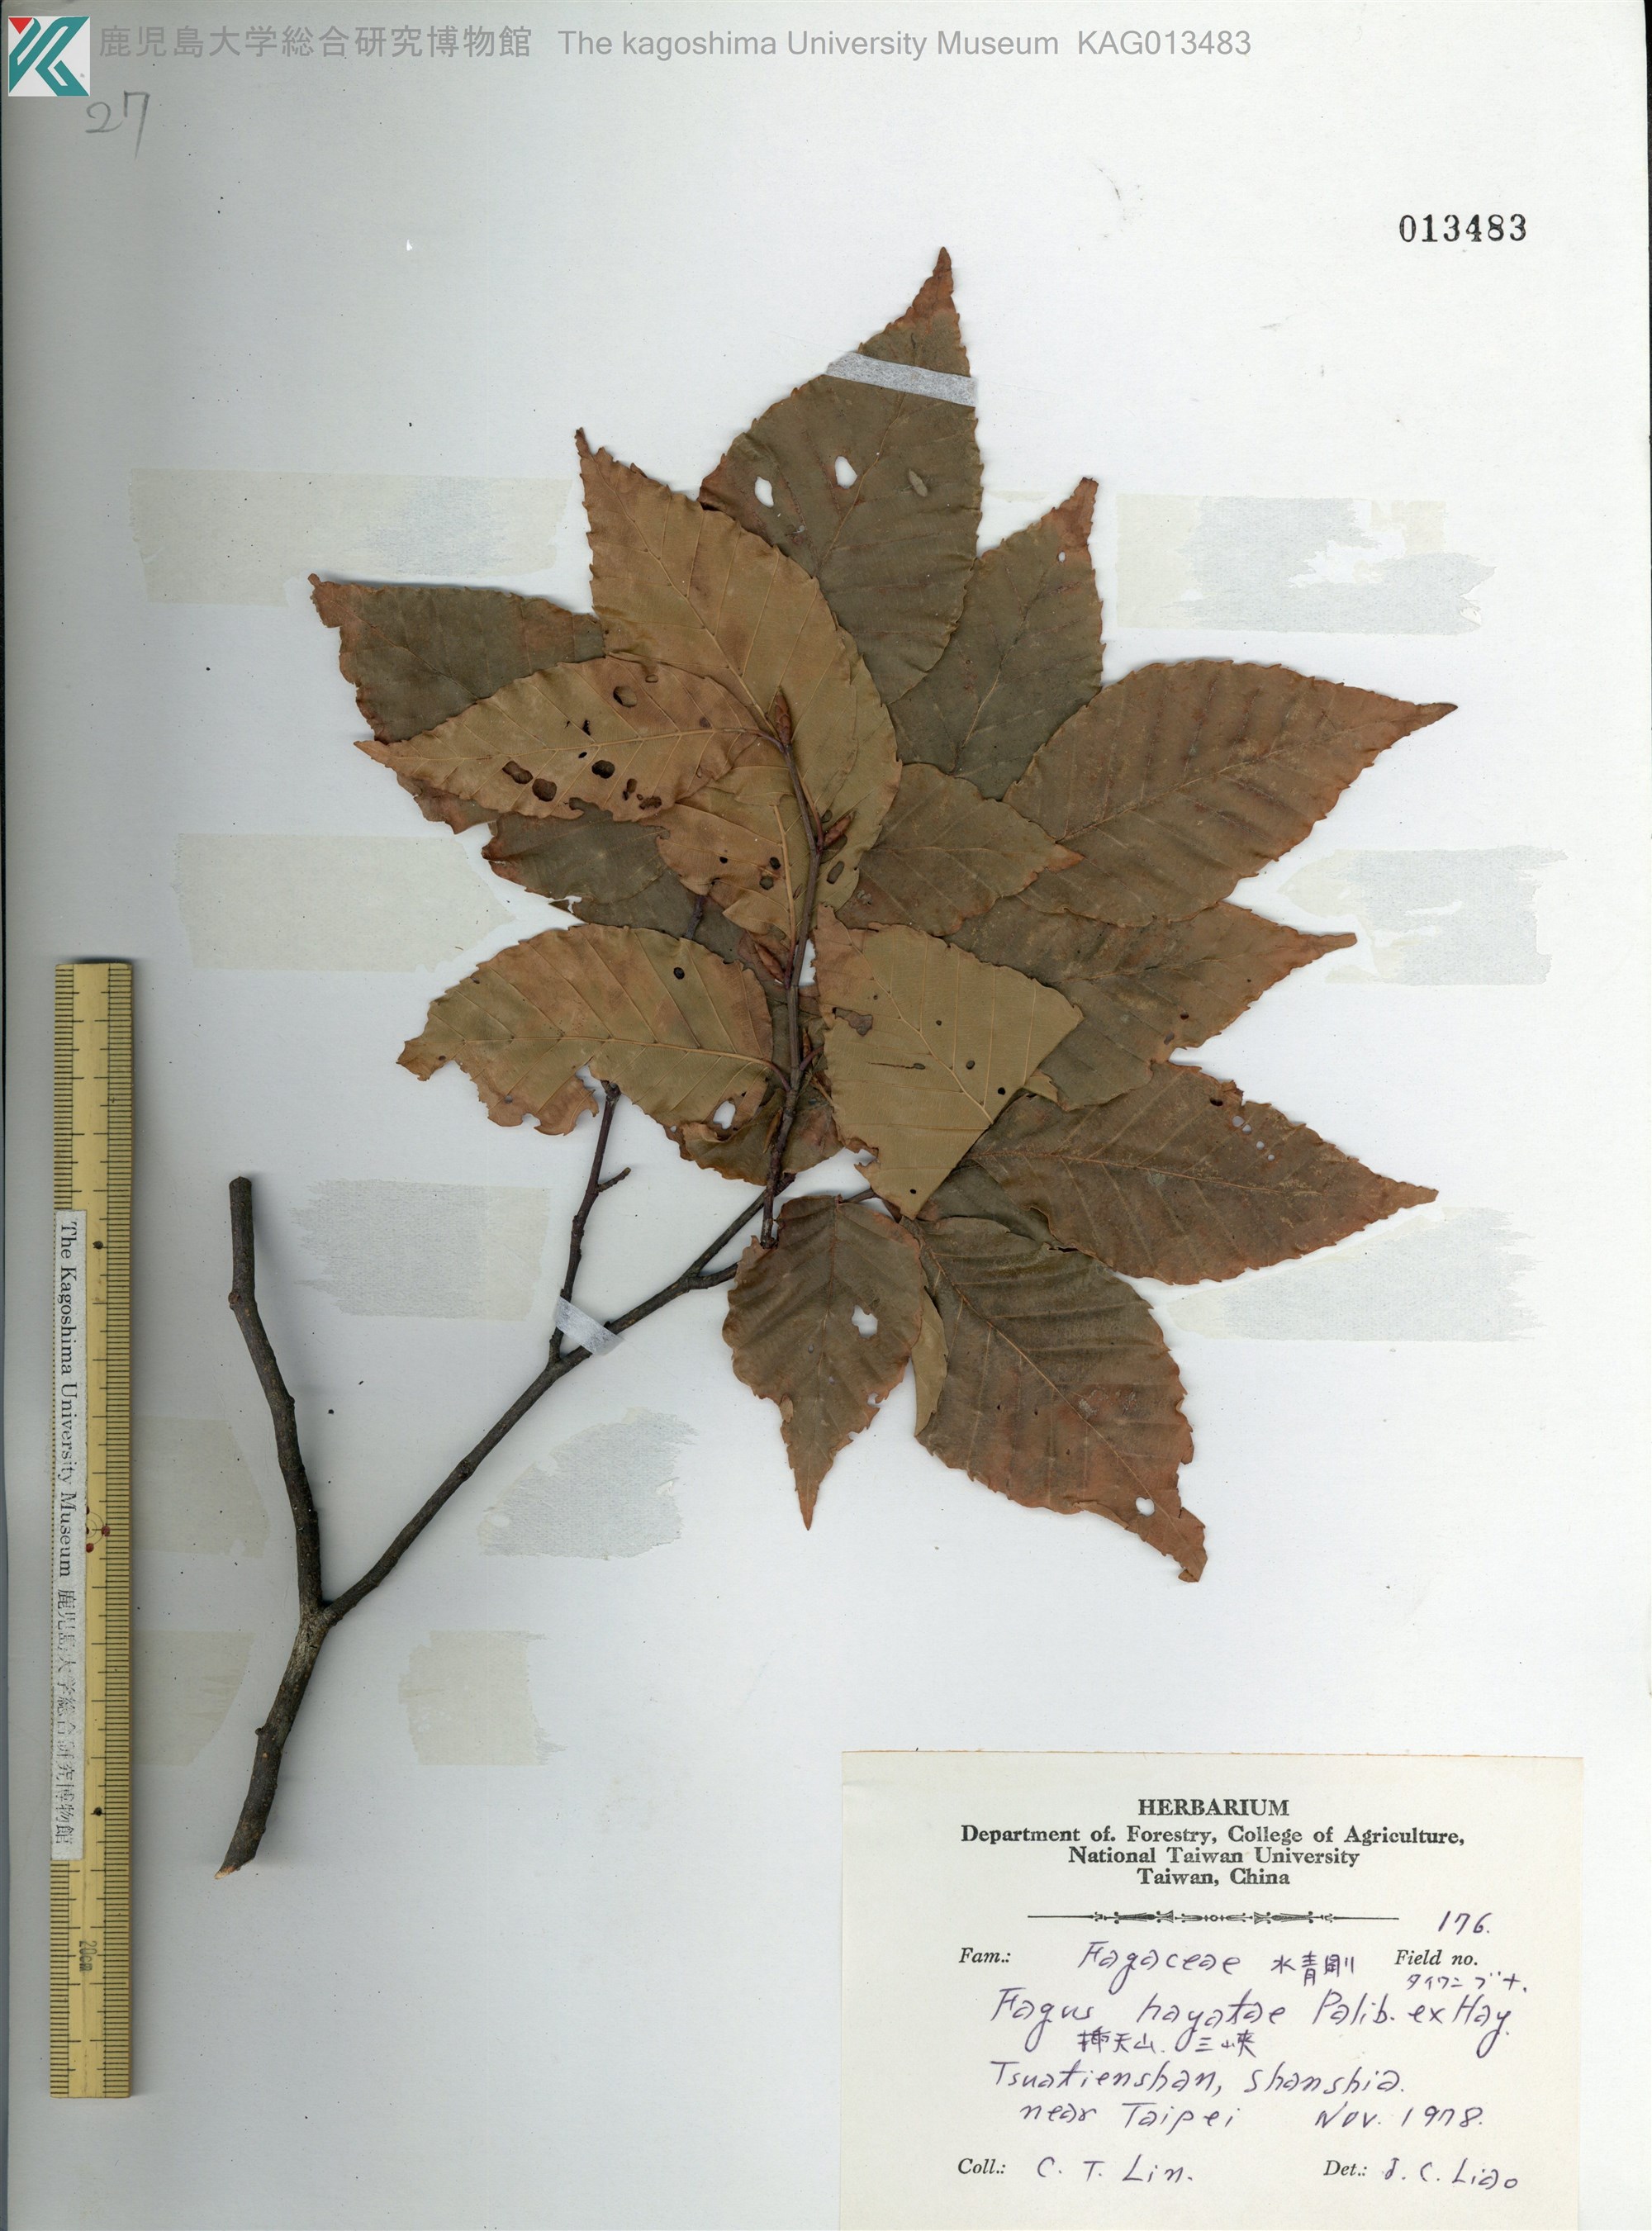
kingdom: Plantae
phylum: Tracheophyta
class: Magnoliopsida
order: Fagales
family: Fagaceae
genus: Fagus
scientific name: Fagus hayatae
